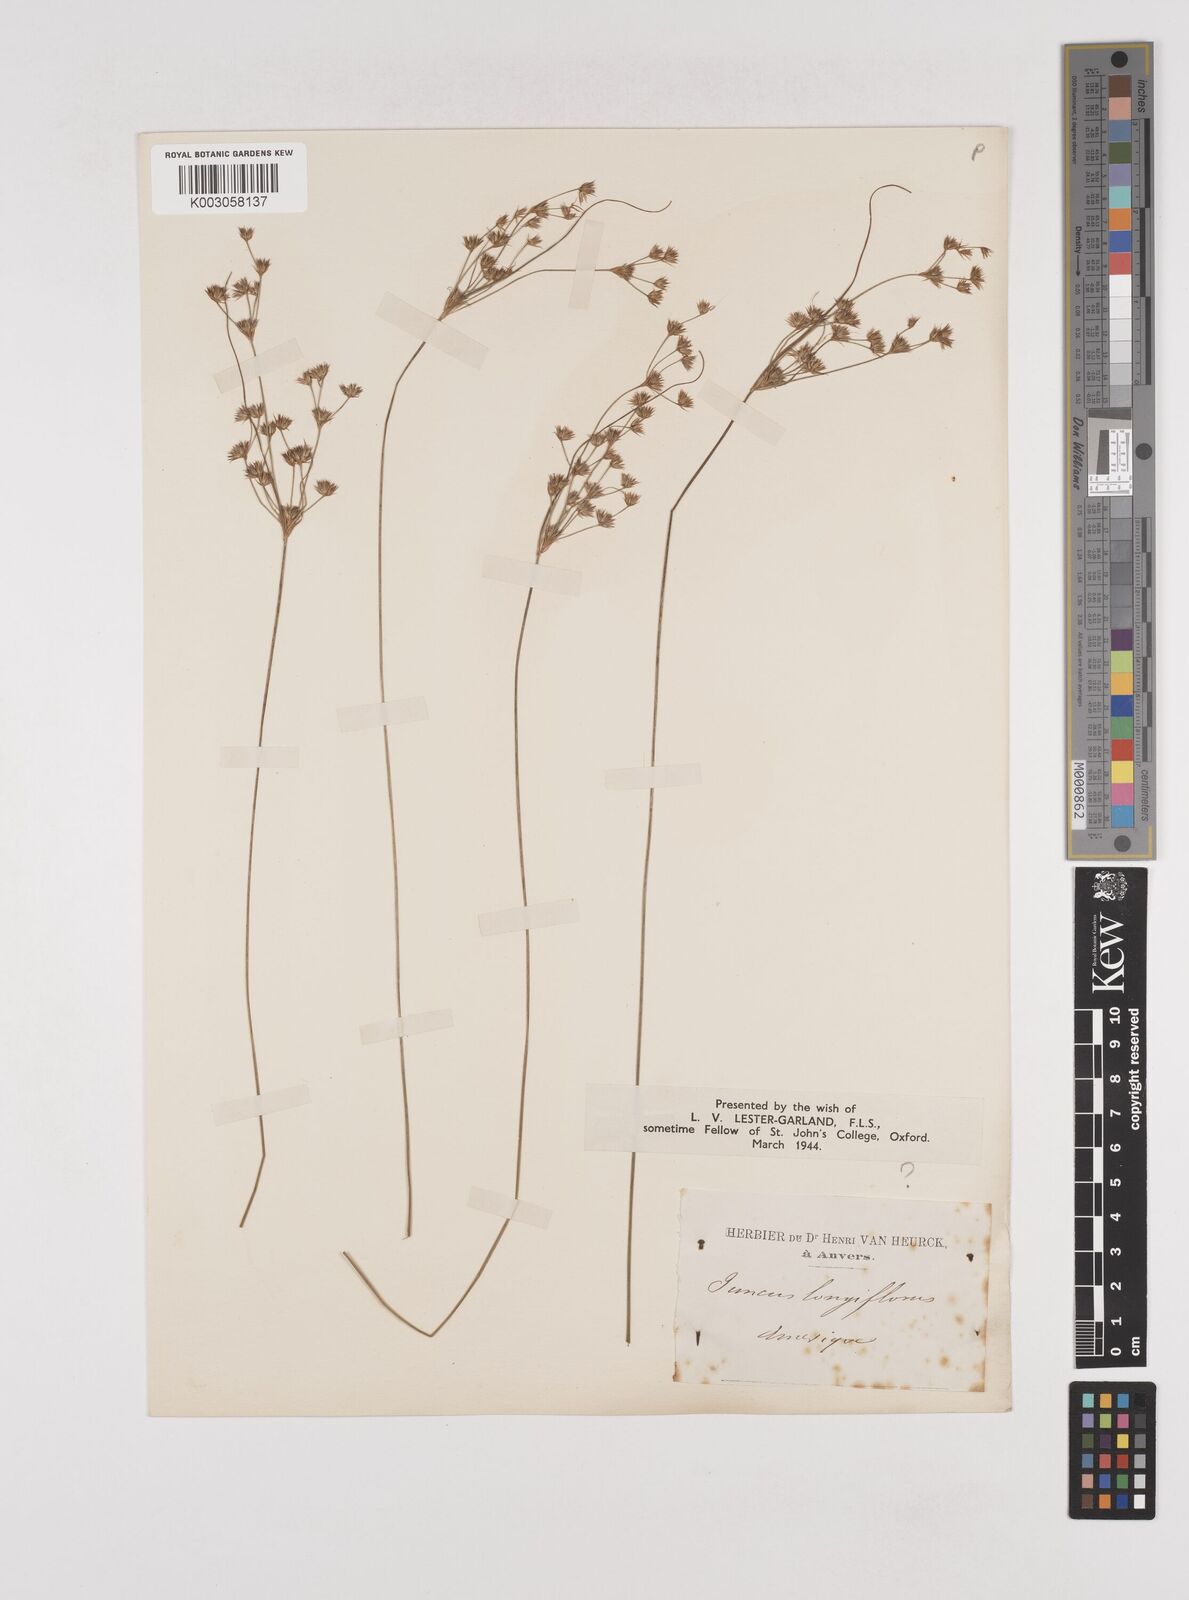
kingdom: Plantae
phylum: Tracheophyta
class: Liliopsida
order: Poales
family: Juncaceae
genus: Juncus
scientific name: Juncus longiflorus
